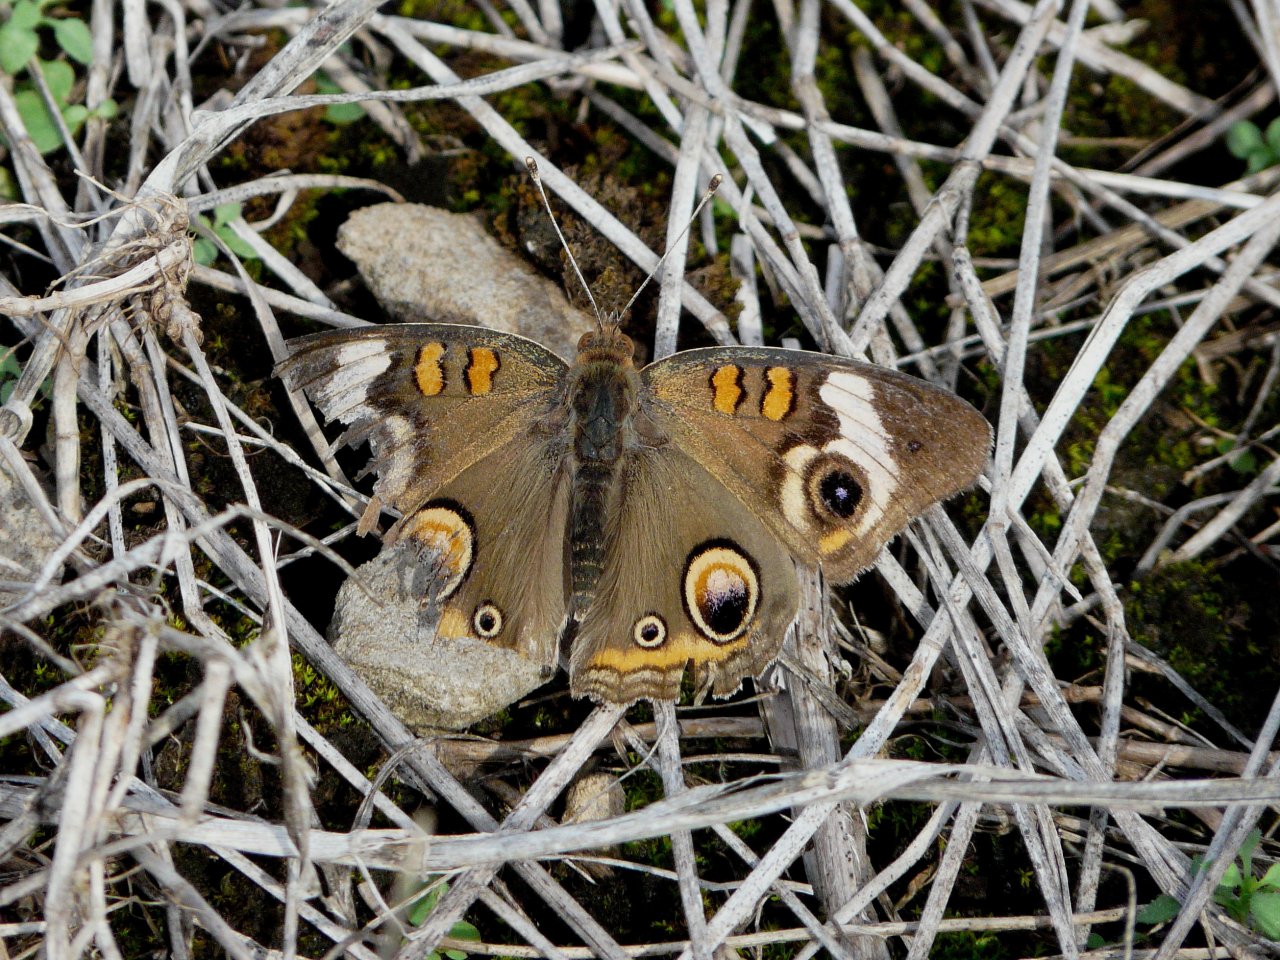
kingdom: Animalia
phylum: Arthropoda
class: Insecta
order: Lepidoptera
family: Nymphalidae
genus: Junonia
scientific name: Junonia coenia
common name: Common Buckeye
